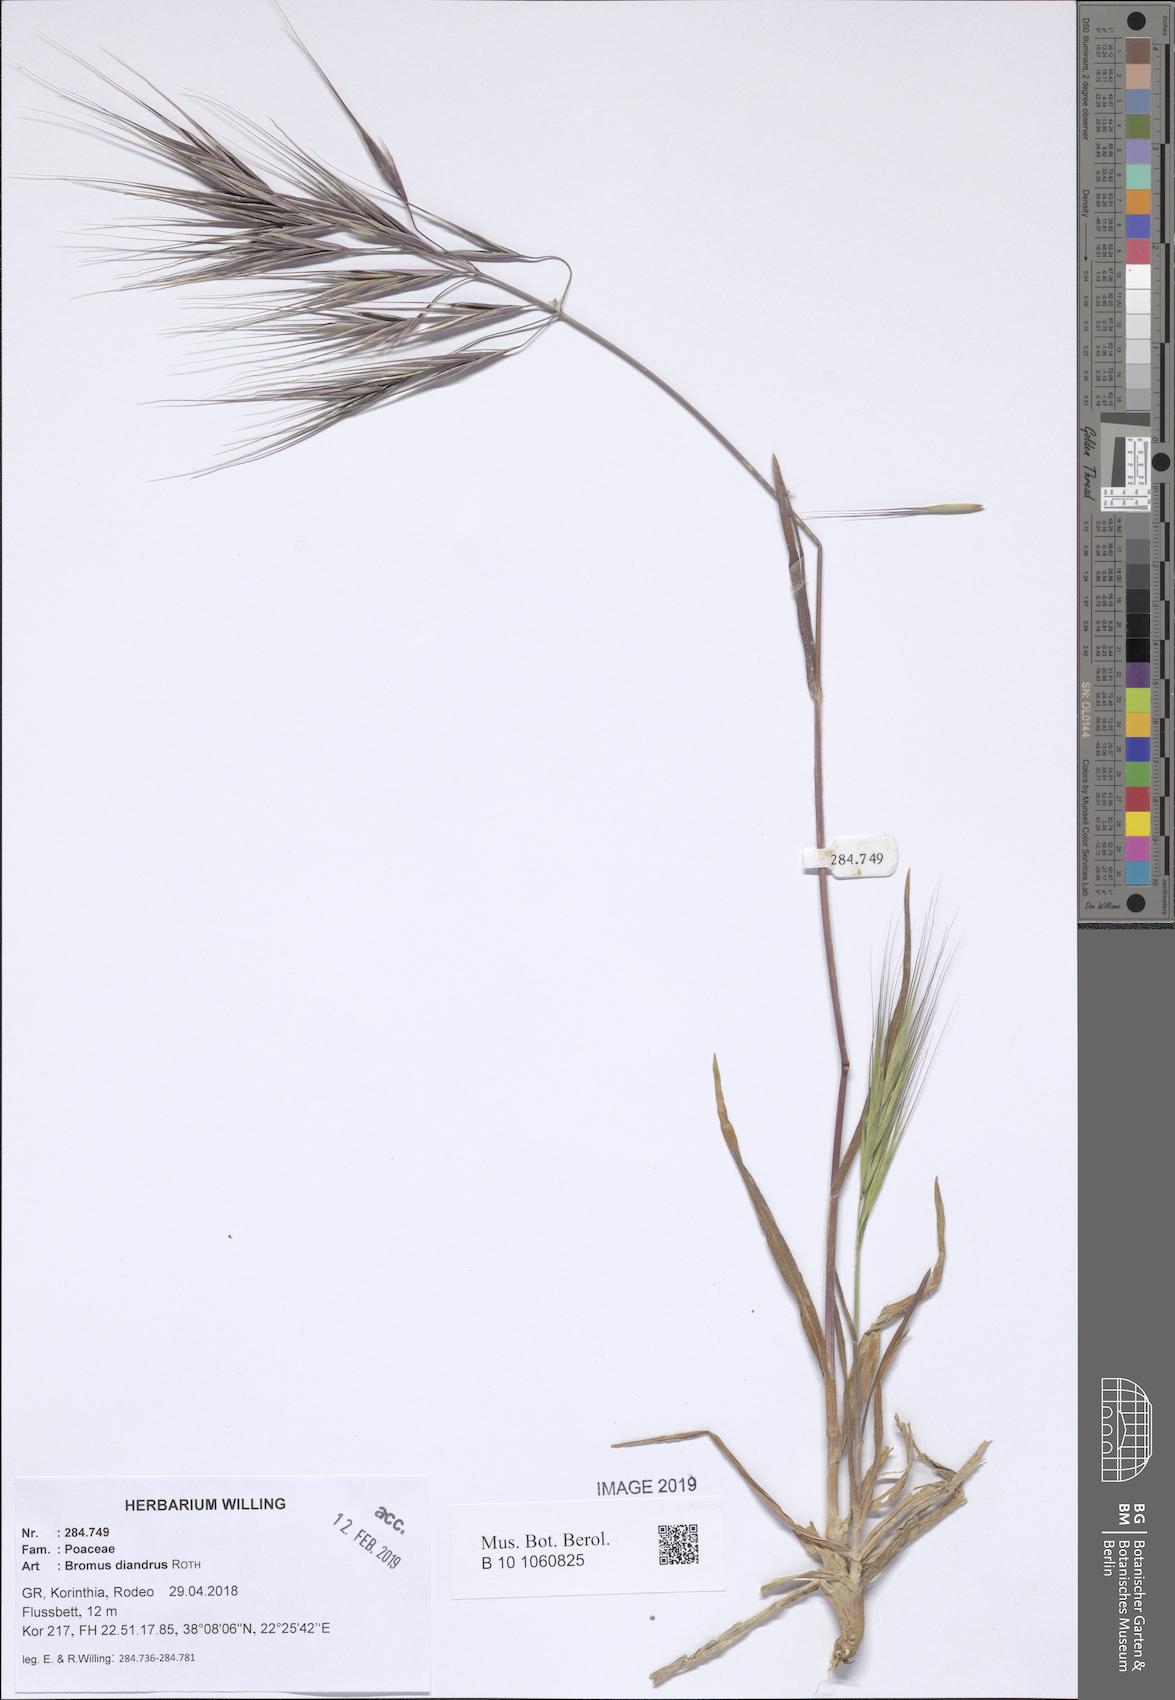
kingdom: Plantae
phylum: Tracheophyta
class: Liliopsida
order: Poales
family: Poaceae
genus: Bromus
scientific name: Bromus diandrus
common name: Ripgut brome
